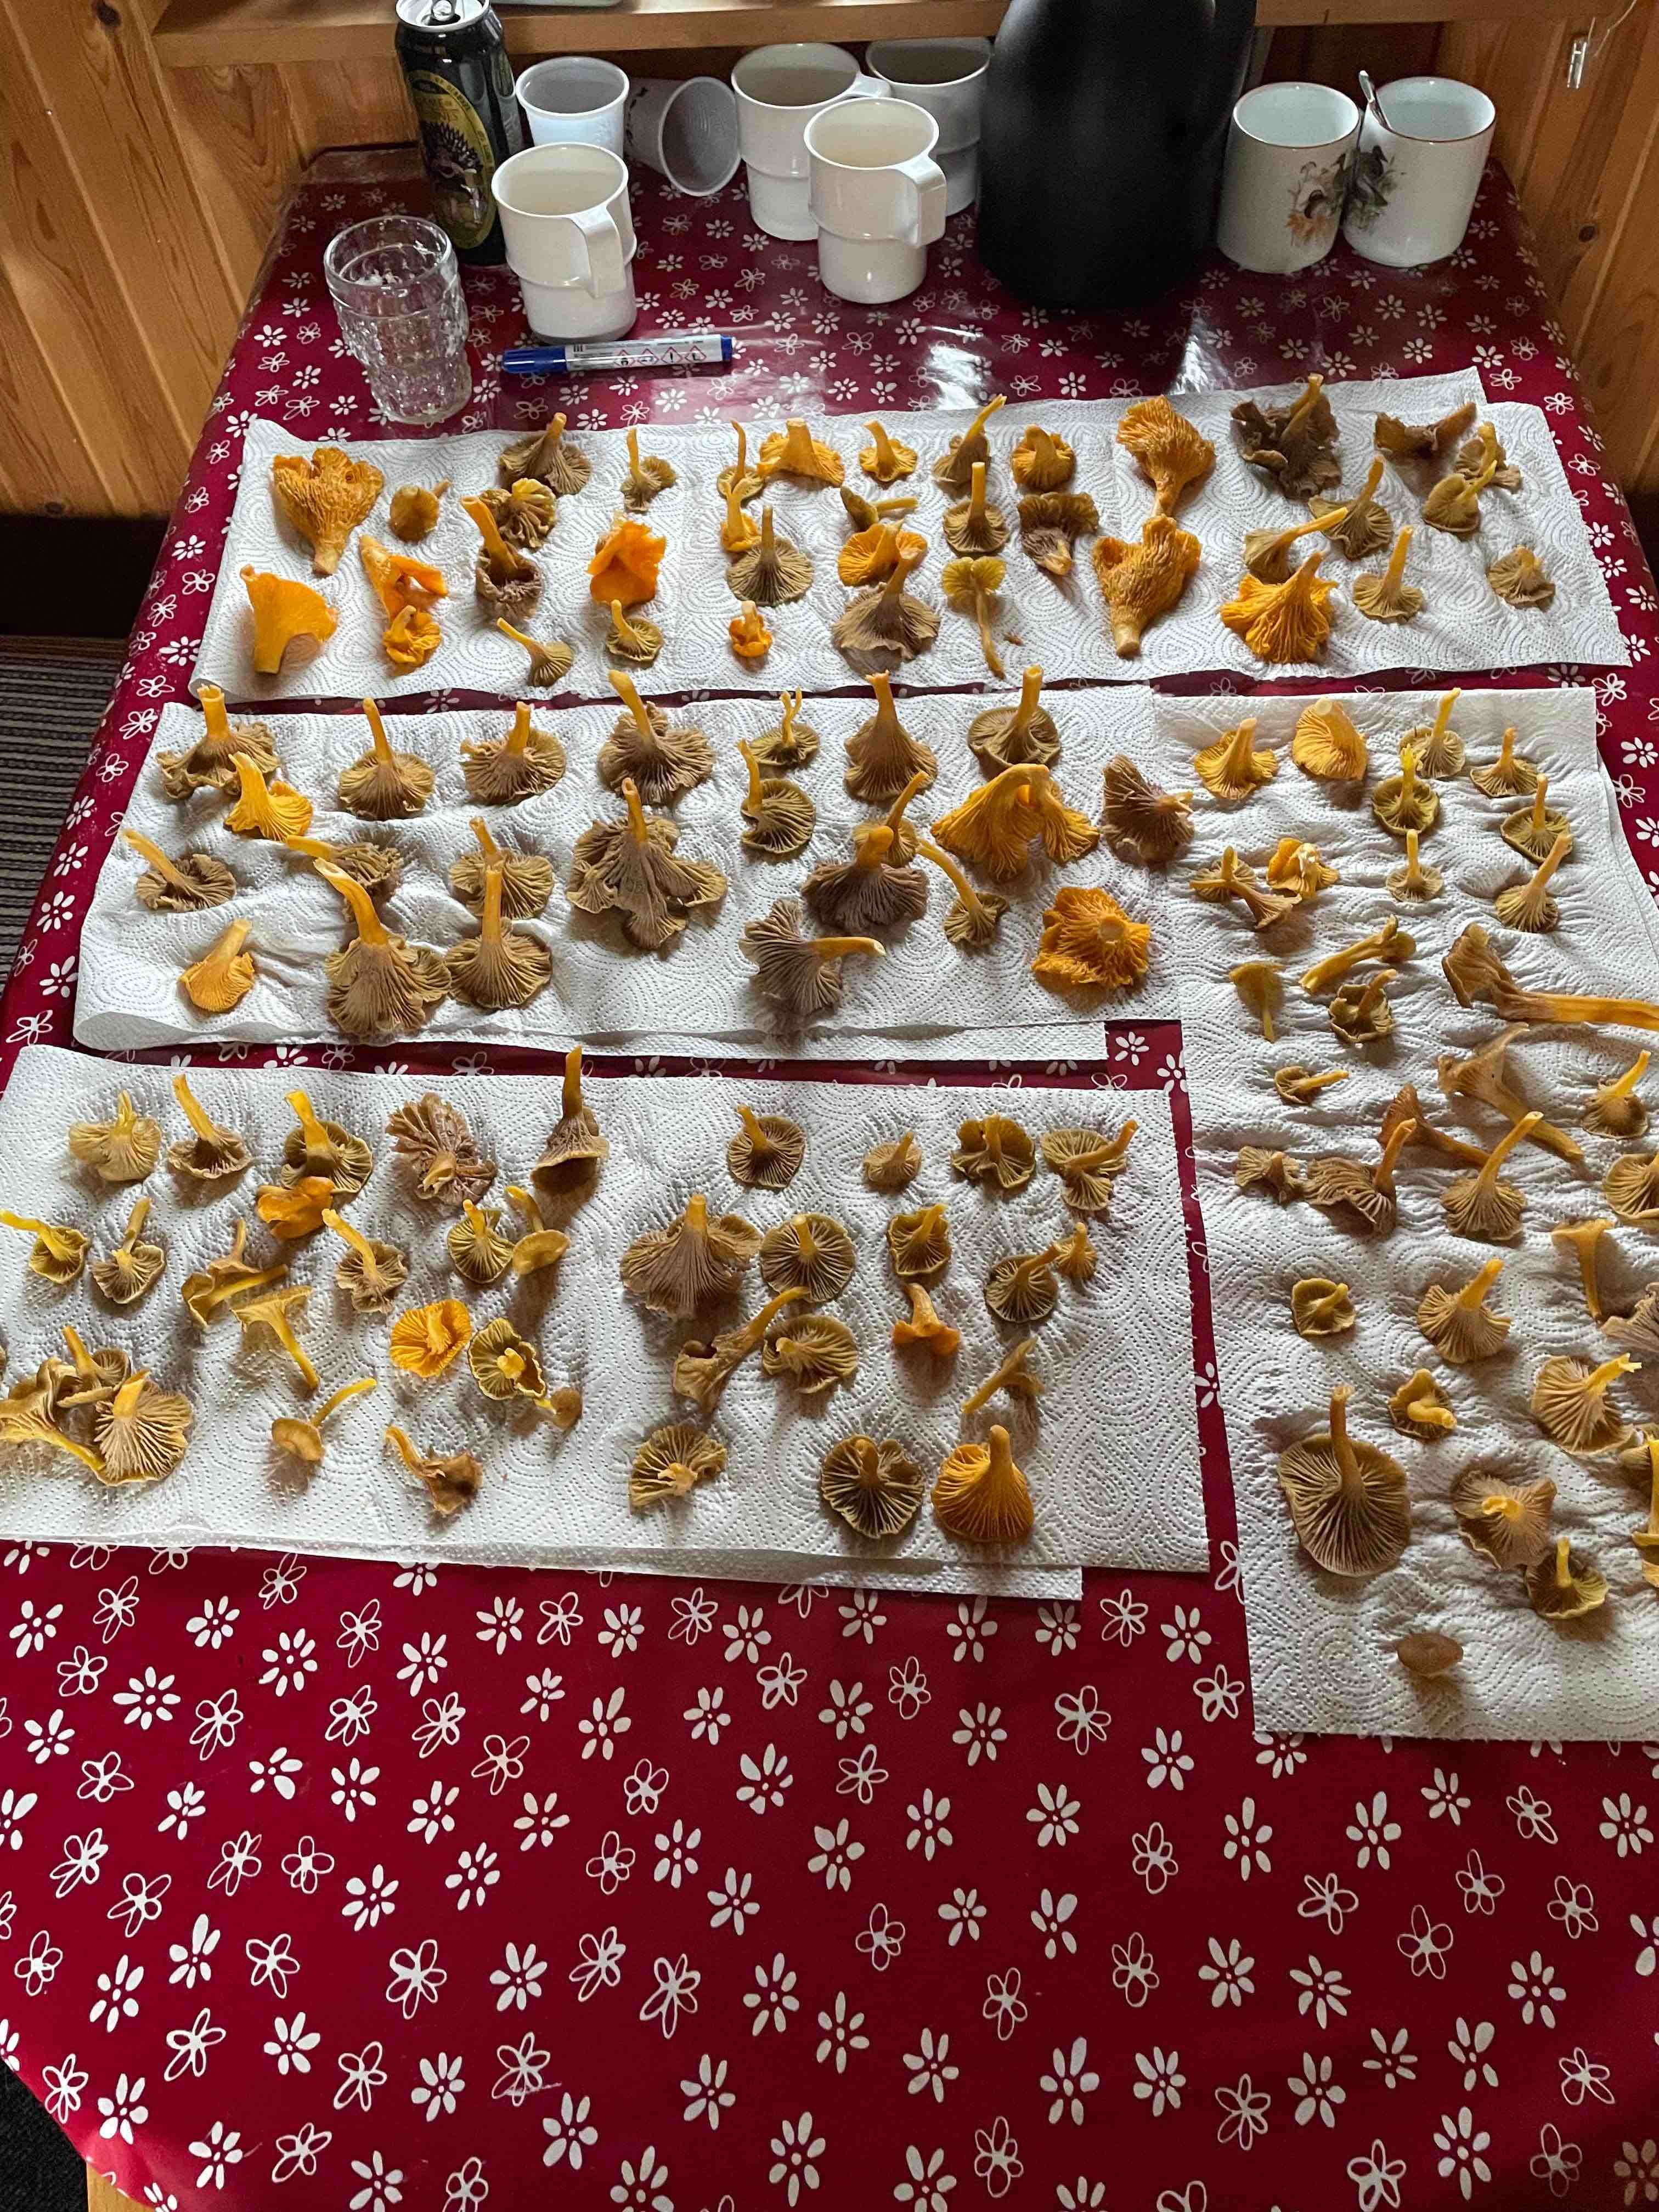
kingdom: Fungi
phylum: Basidiomycota
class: Agaricomycetes
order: Cantharellales
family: Hydnaceae
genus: Craterellus
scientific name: Craterellus tubaeformis
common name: tragt-kantarel
